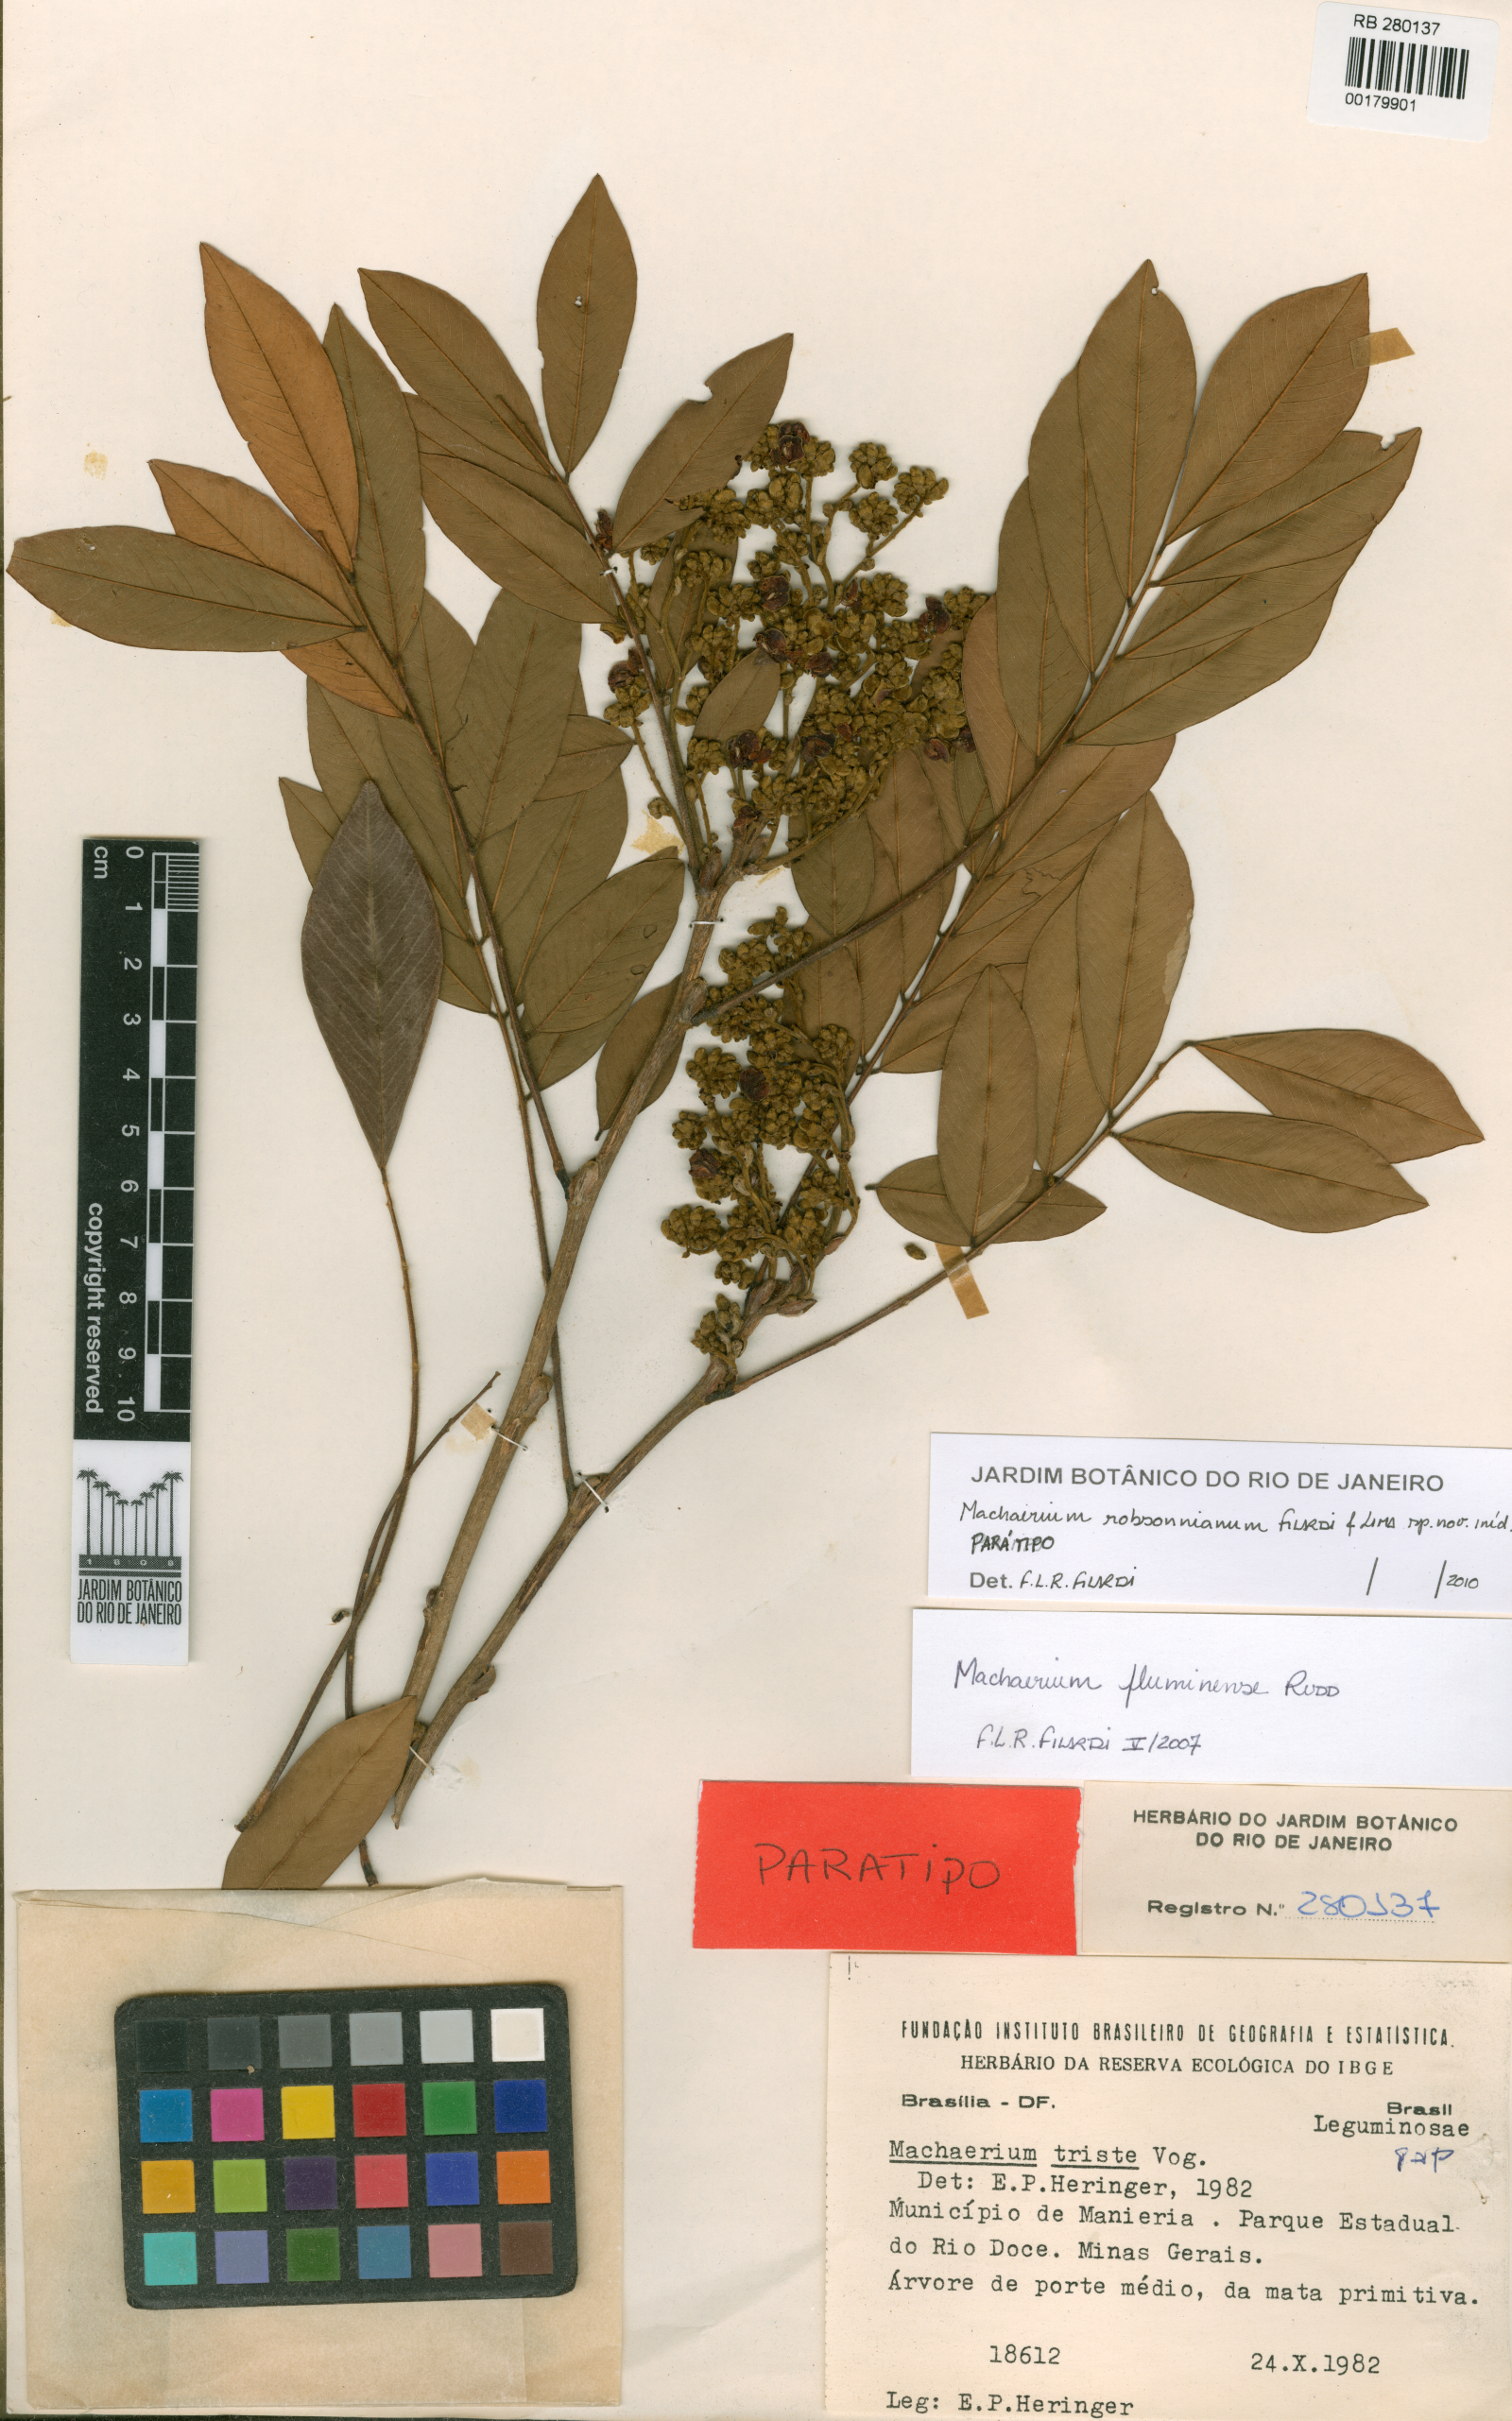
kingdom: Plantae
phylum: Tracheophyta
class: Magnoliopsida
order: Fabales
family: Fabaceae
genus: Machaerium
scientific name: Machaerium robsonianum
